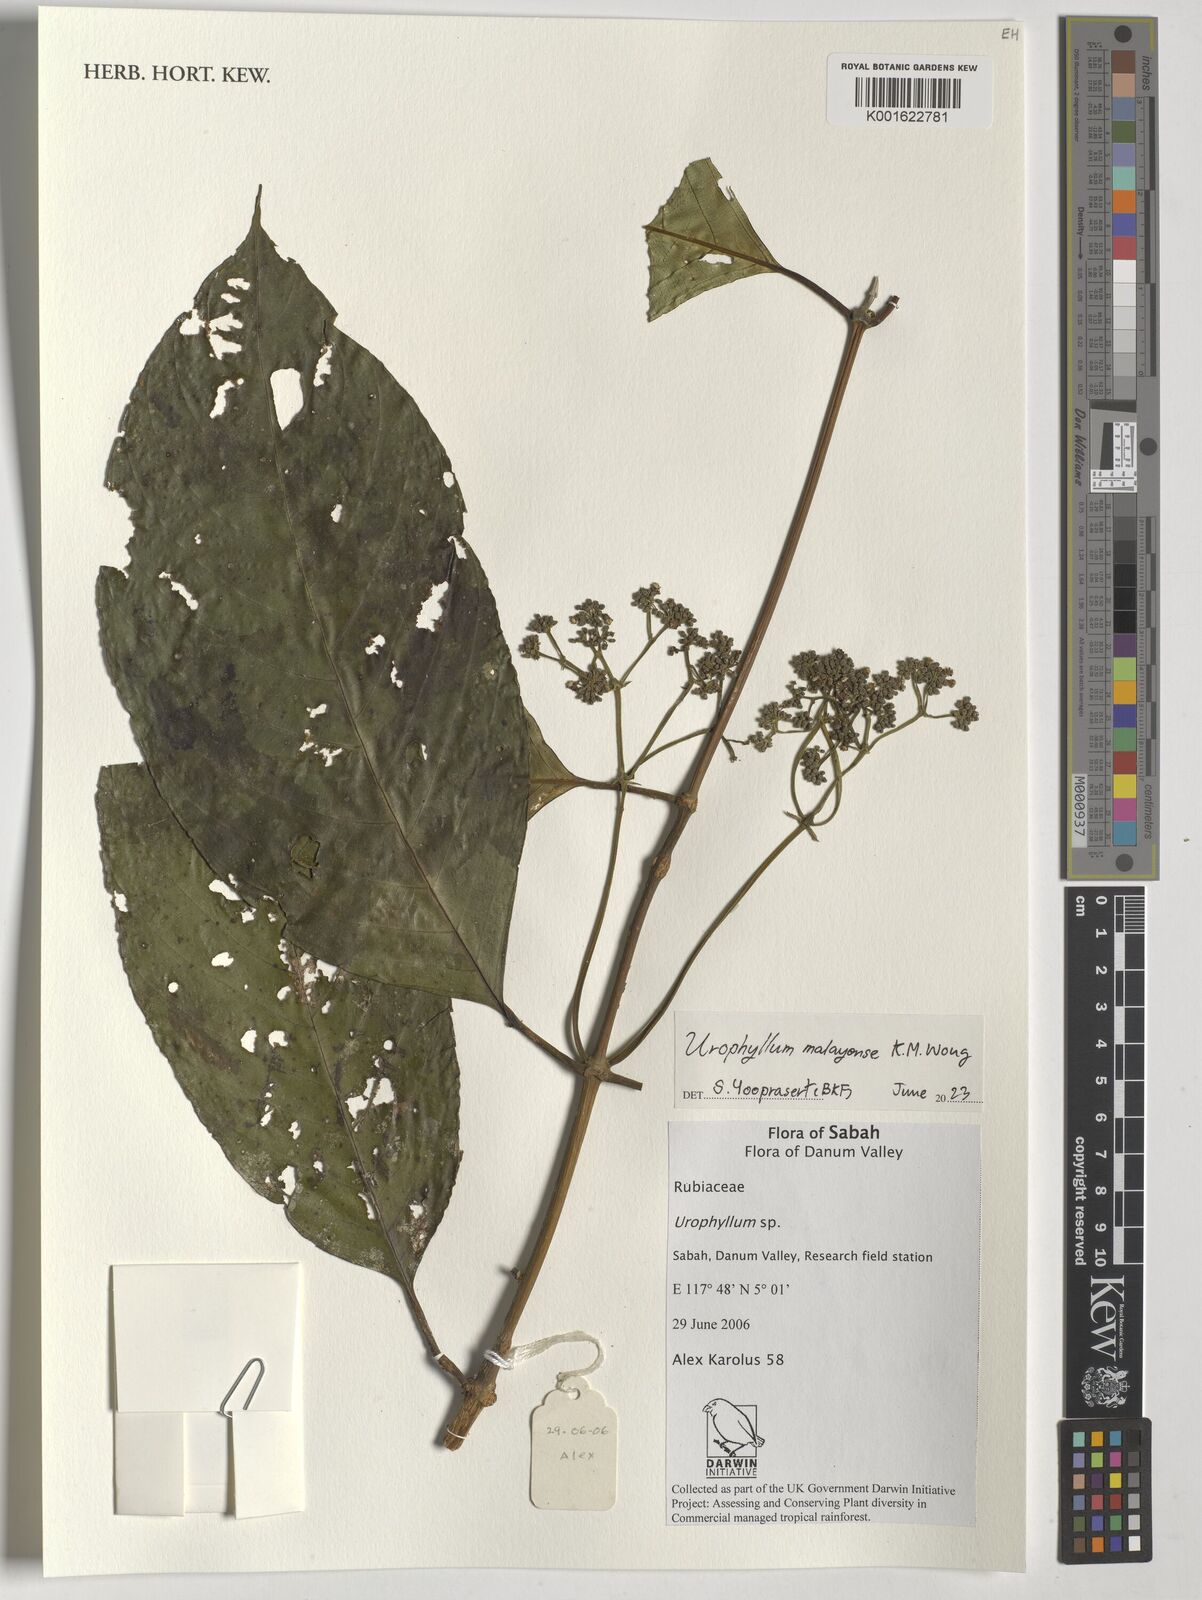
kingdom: Plantae
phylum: Tracheophyta
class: Magnoliopsida
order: Gentianales
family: Rubiaceae
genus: Urophyllum
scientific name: Urophyllum malayense
